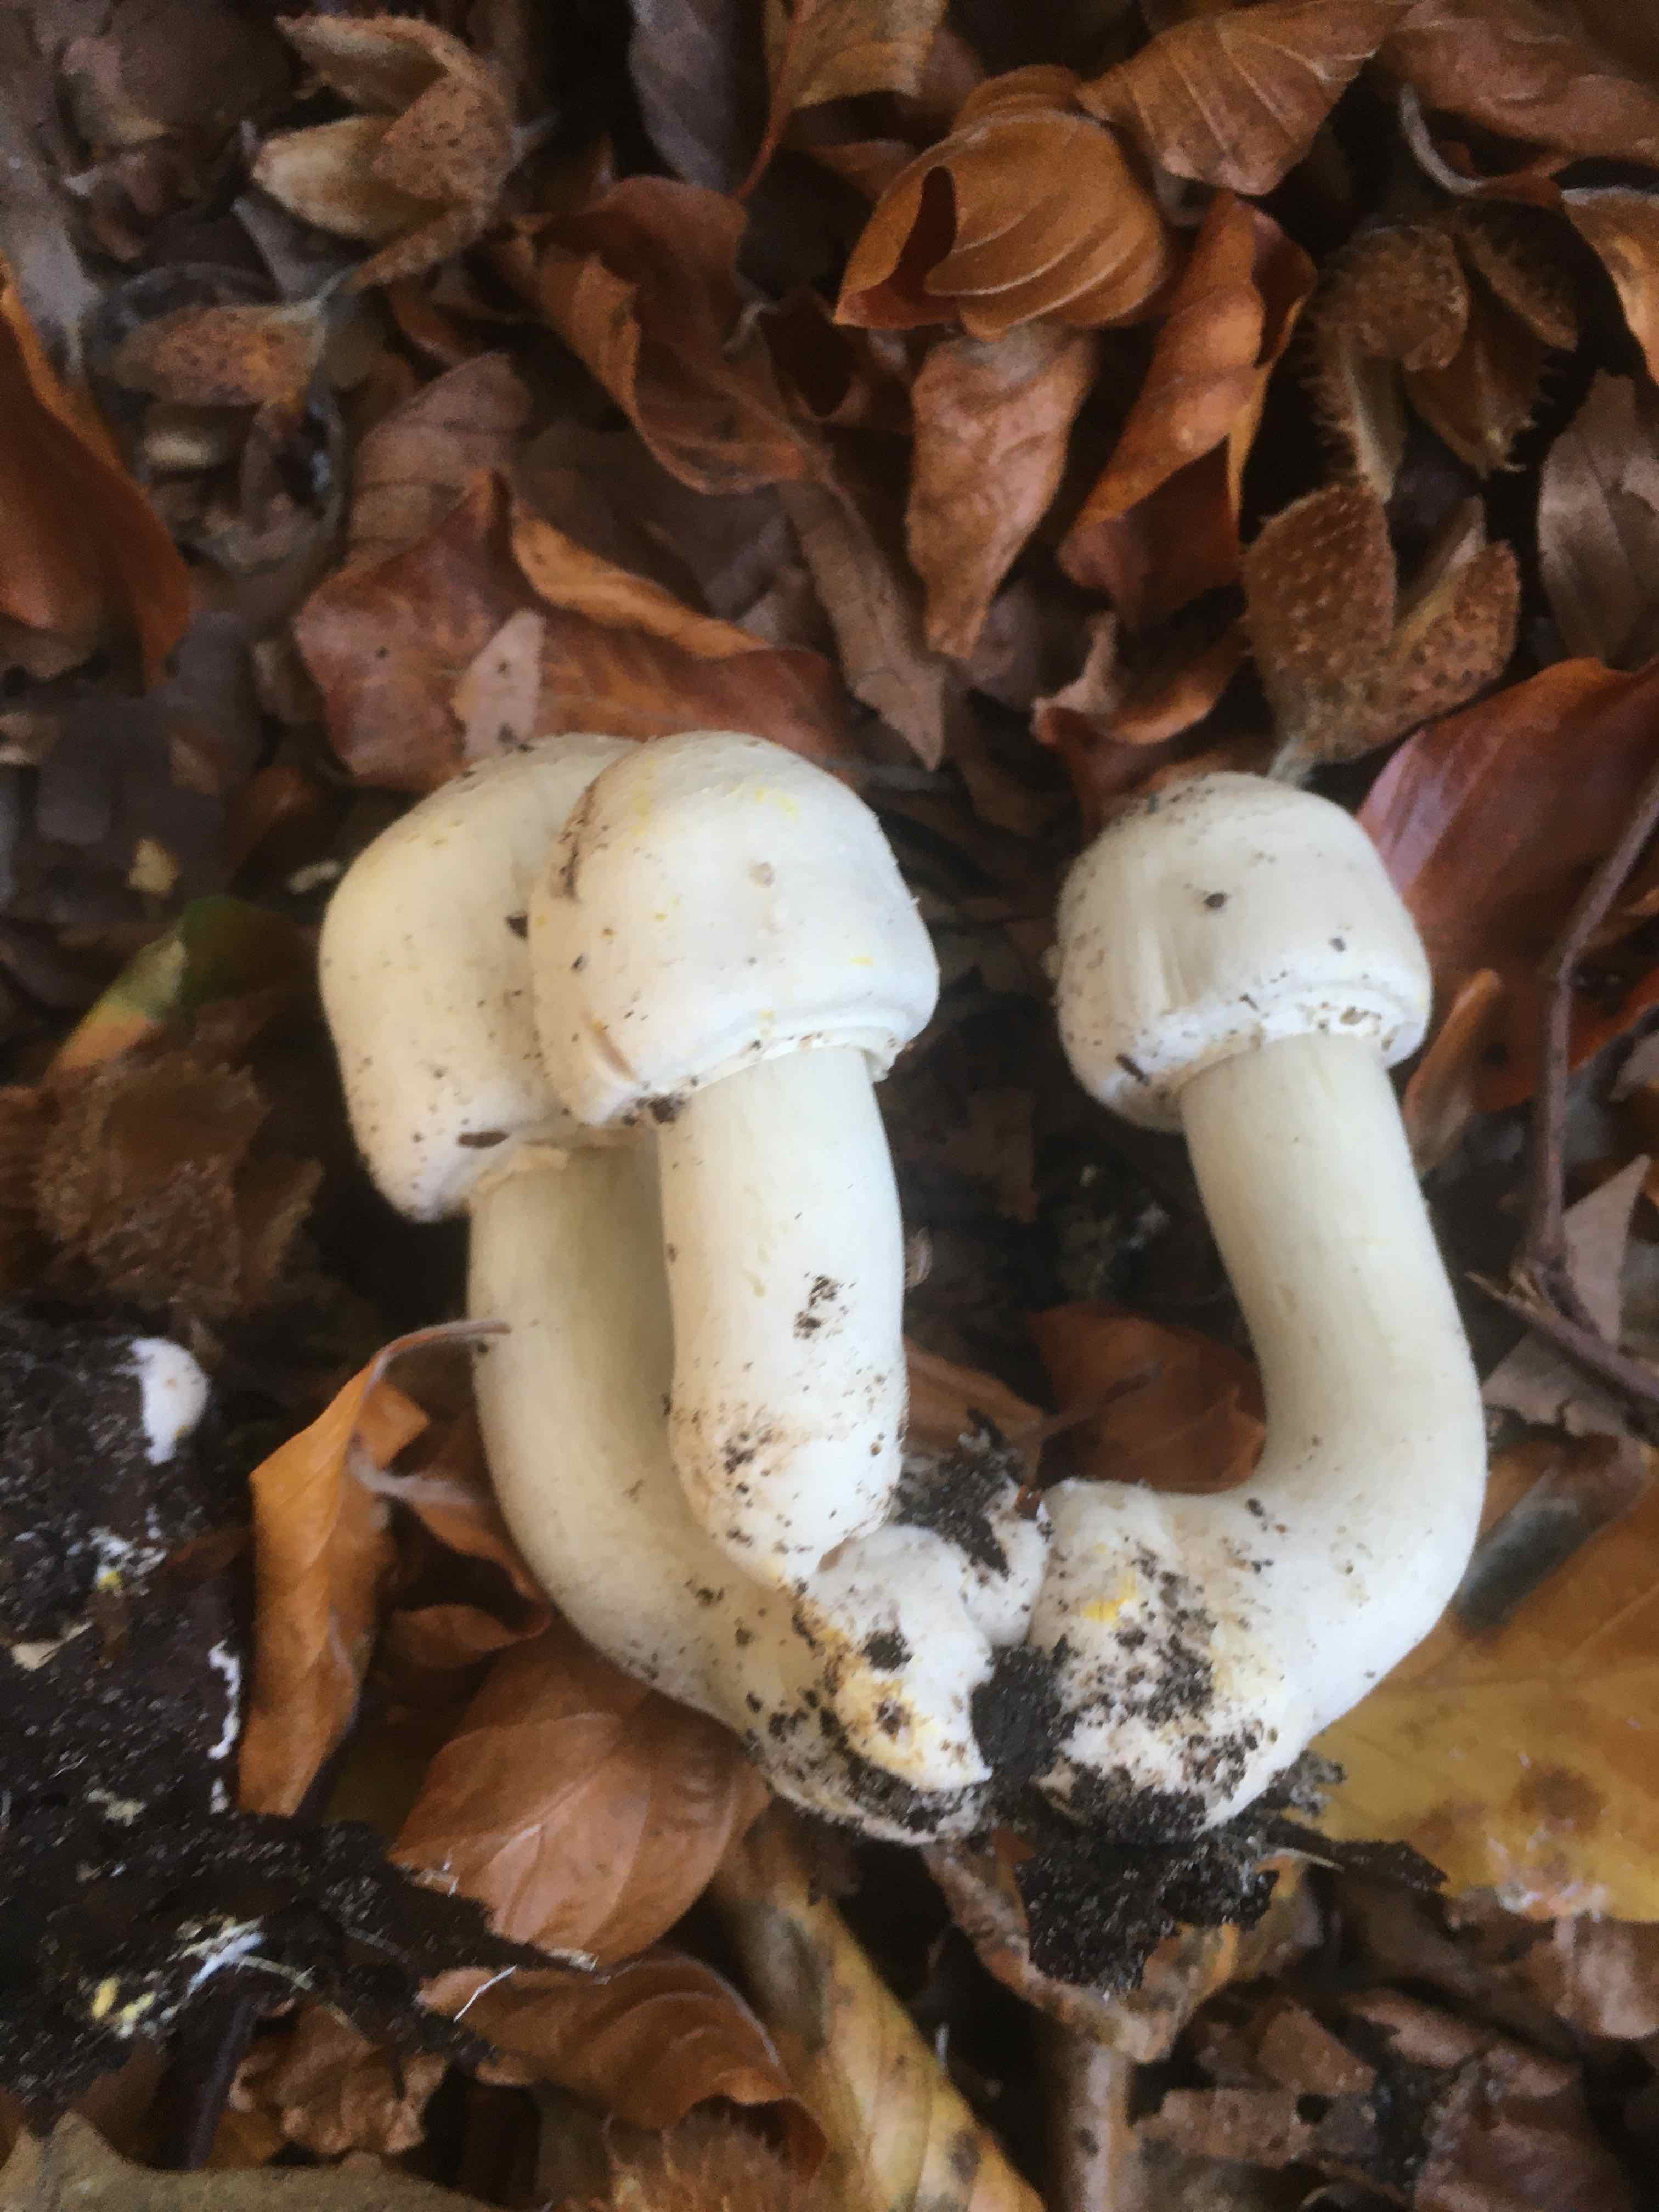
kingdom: Fungi
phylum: Basidiomycota
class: Agaricomycetes
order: Agaricales
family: Agaricaceae
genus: Agaricus
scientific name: Agaricus xanthodermus
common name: karbol-champignon
